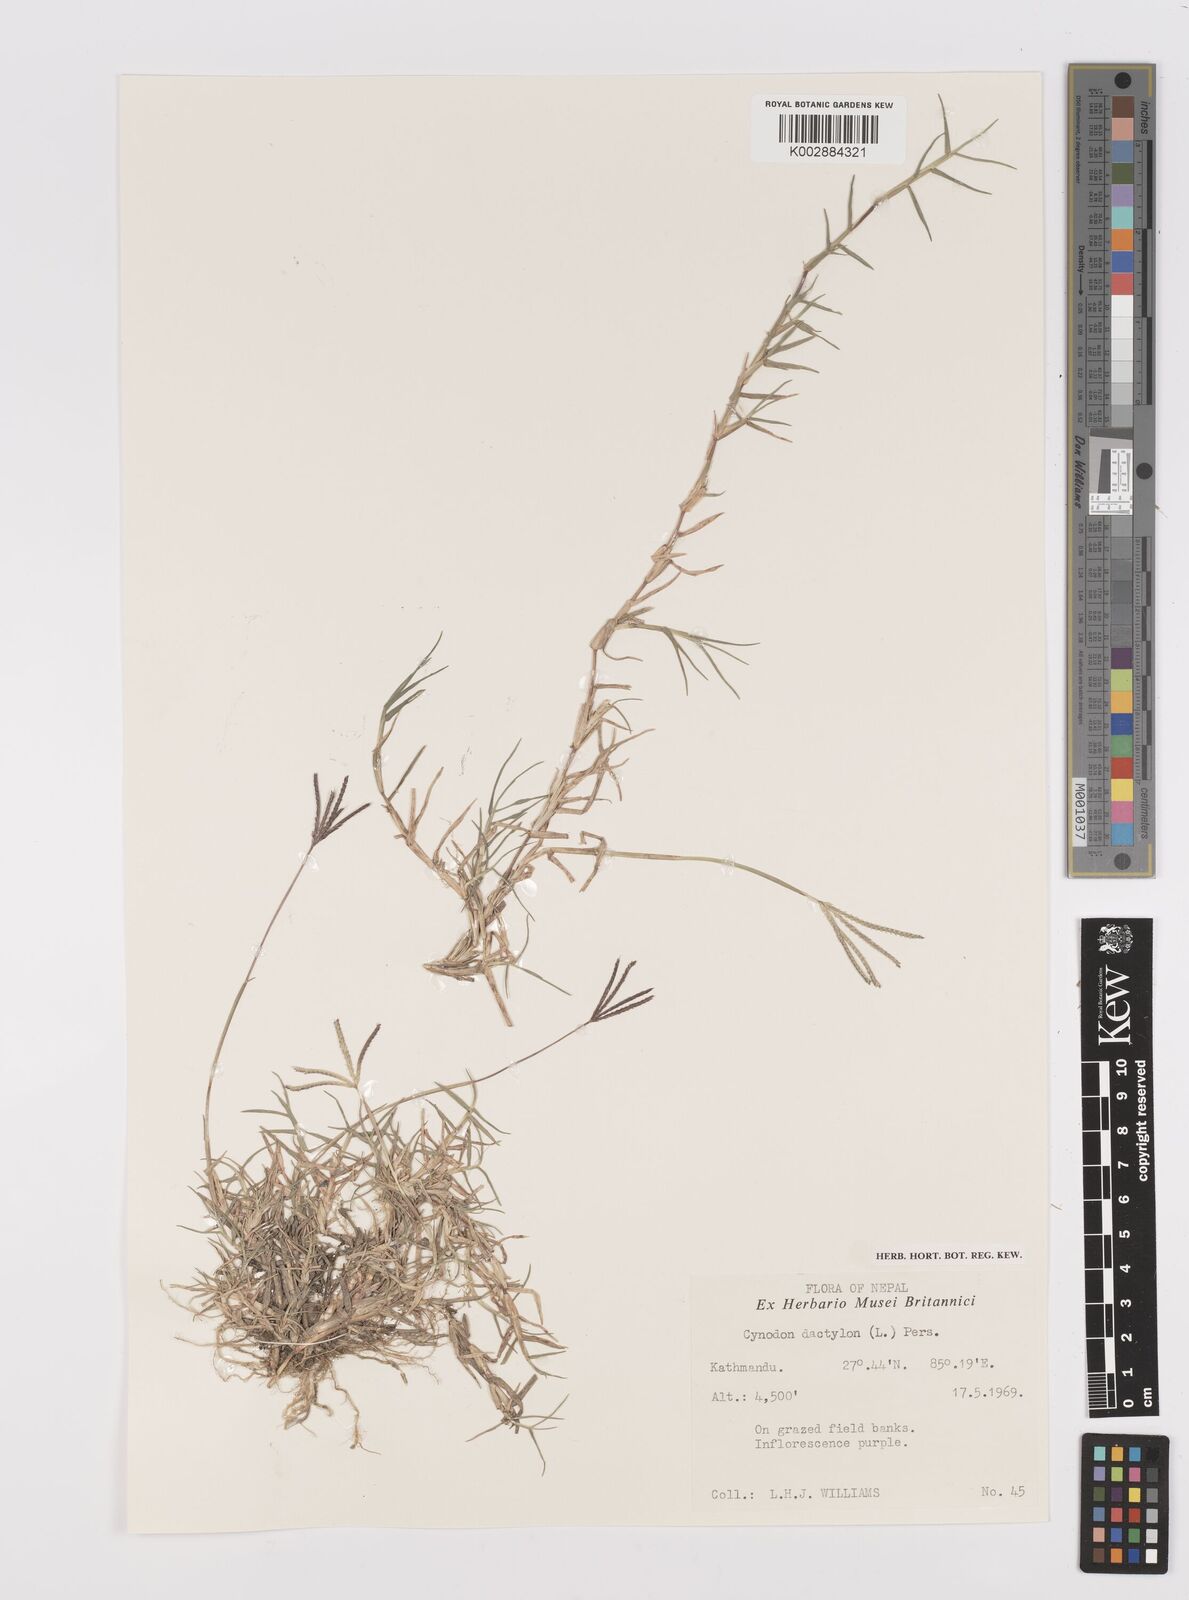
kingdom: Plantae
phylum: Tracheophyta
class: Liliopsida
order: Poales
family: Poaceae
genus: Cynodon
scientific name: Cynodon dactylon
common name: Bermuda grass
